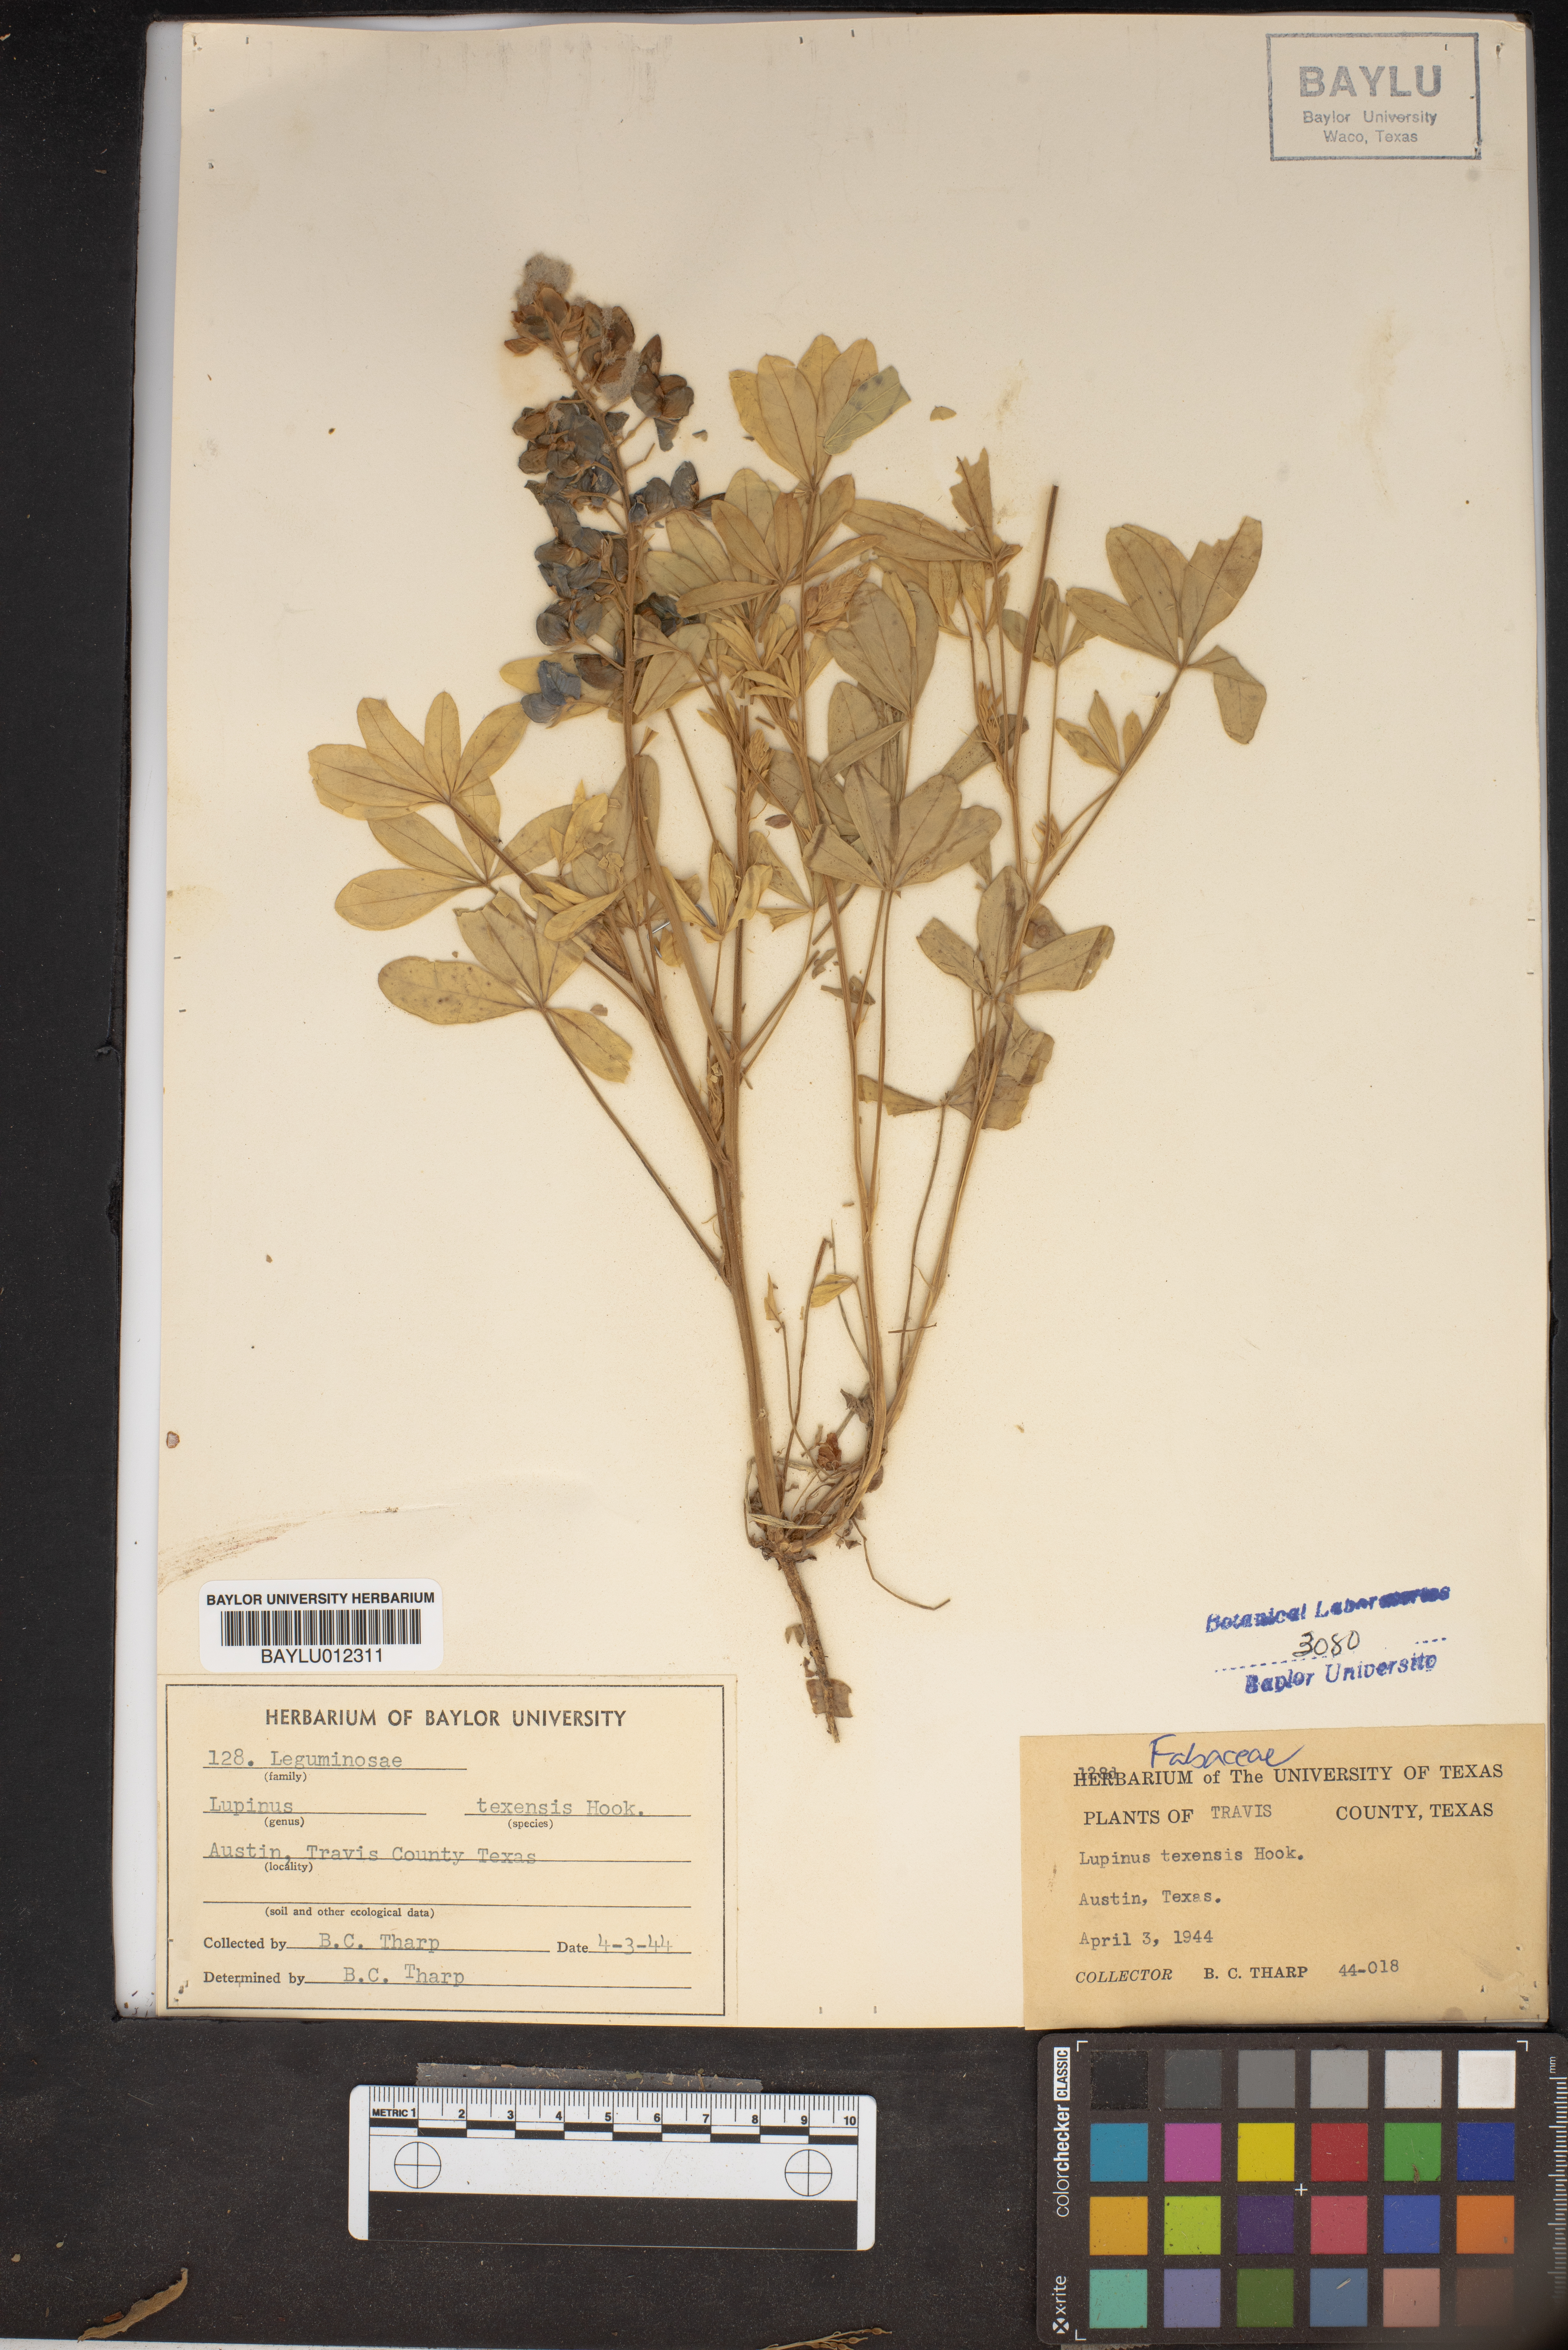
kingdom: Plantae
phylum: Tracheophyta
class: Magnoliopsida
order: Fabales
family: Fabaceae
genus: Lupinus
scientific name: Lupinus texensis
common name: Texas bluebonnet
